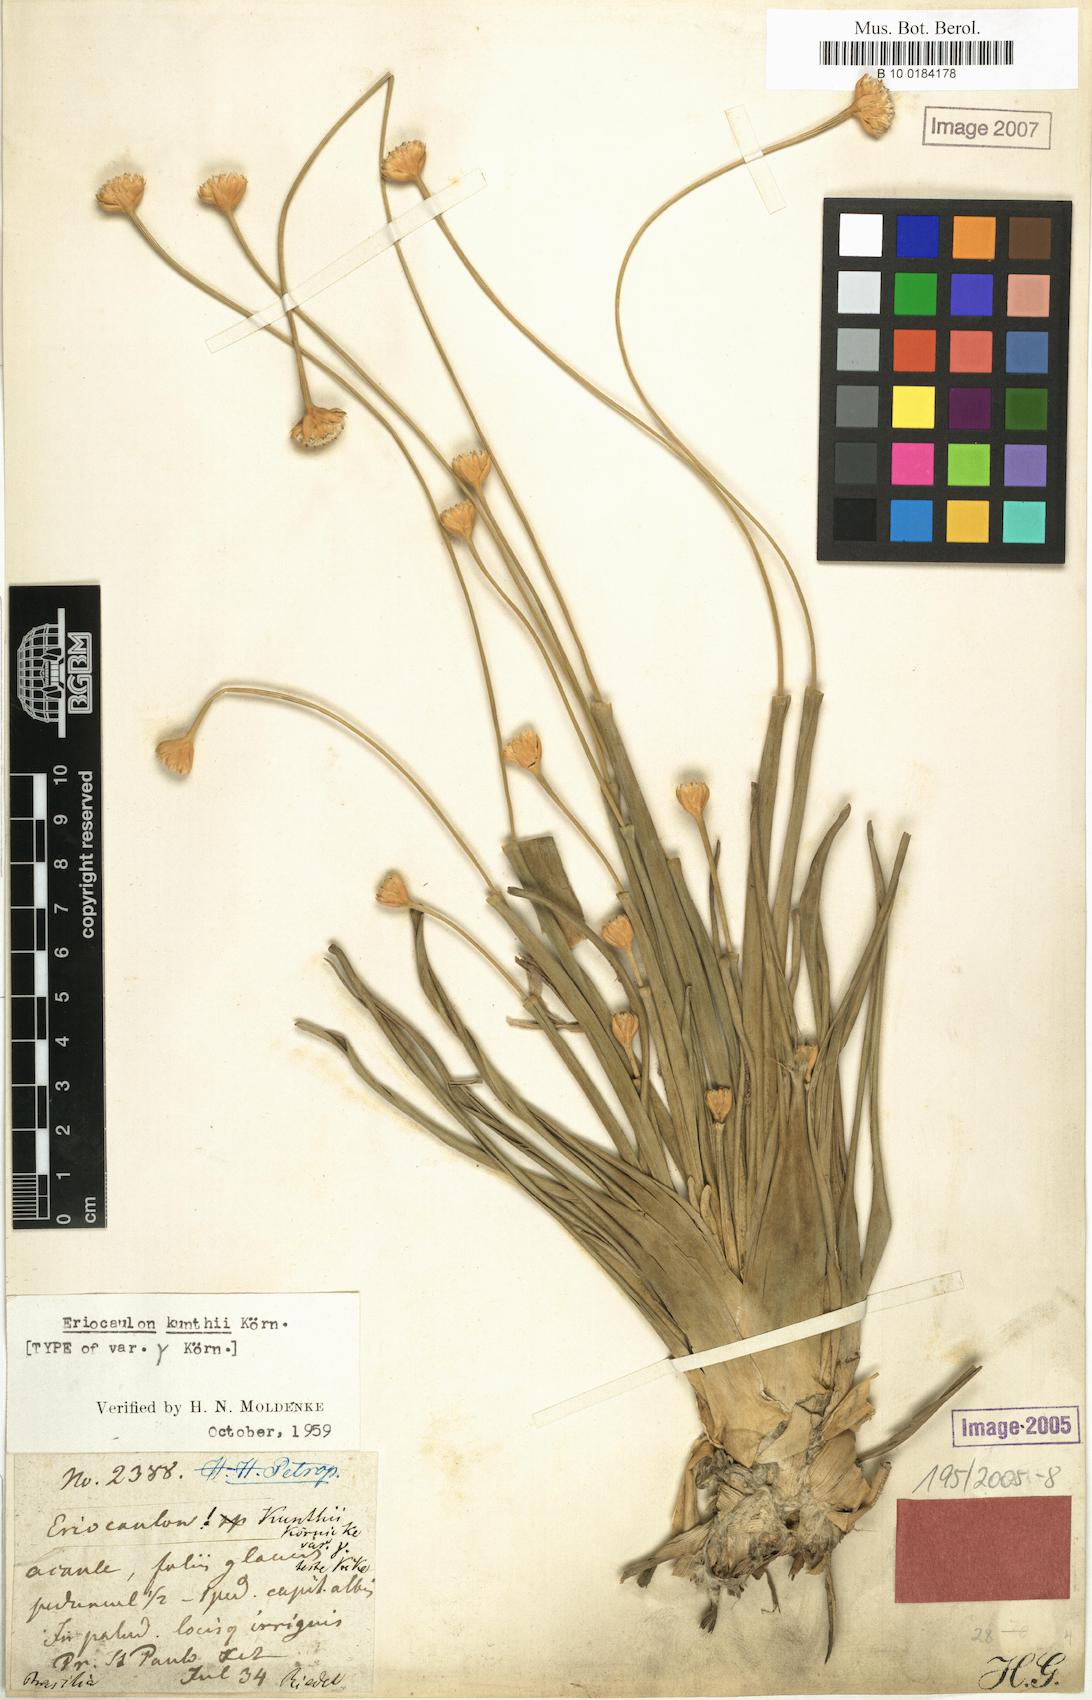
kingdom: Plantae
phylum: Tracheophyta
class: Liliopsida
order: Poales
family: Eriocaulaceae
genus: Eriocaulon
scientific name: Eriocaulon ligulatum
